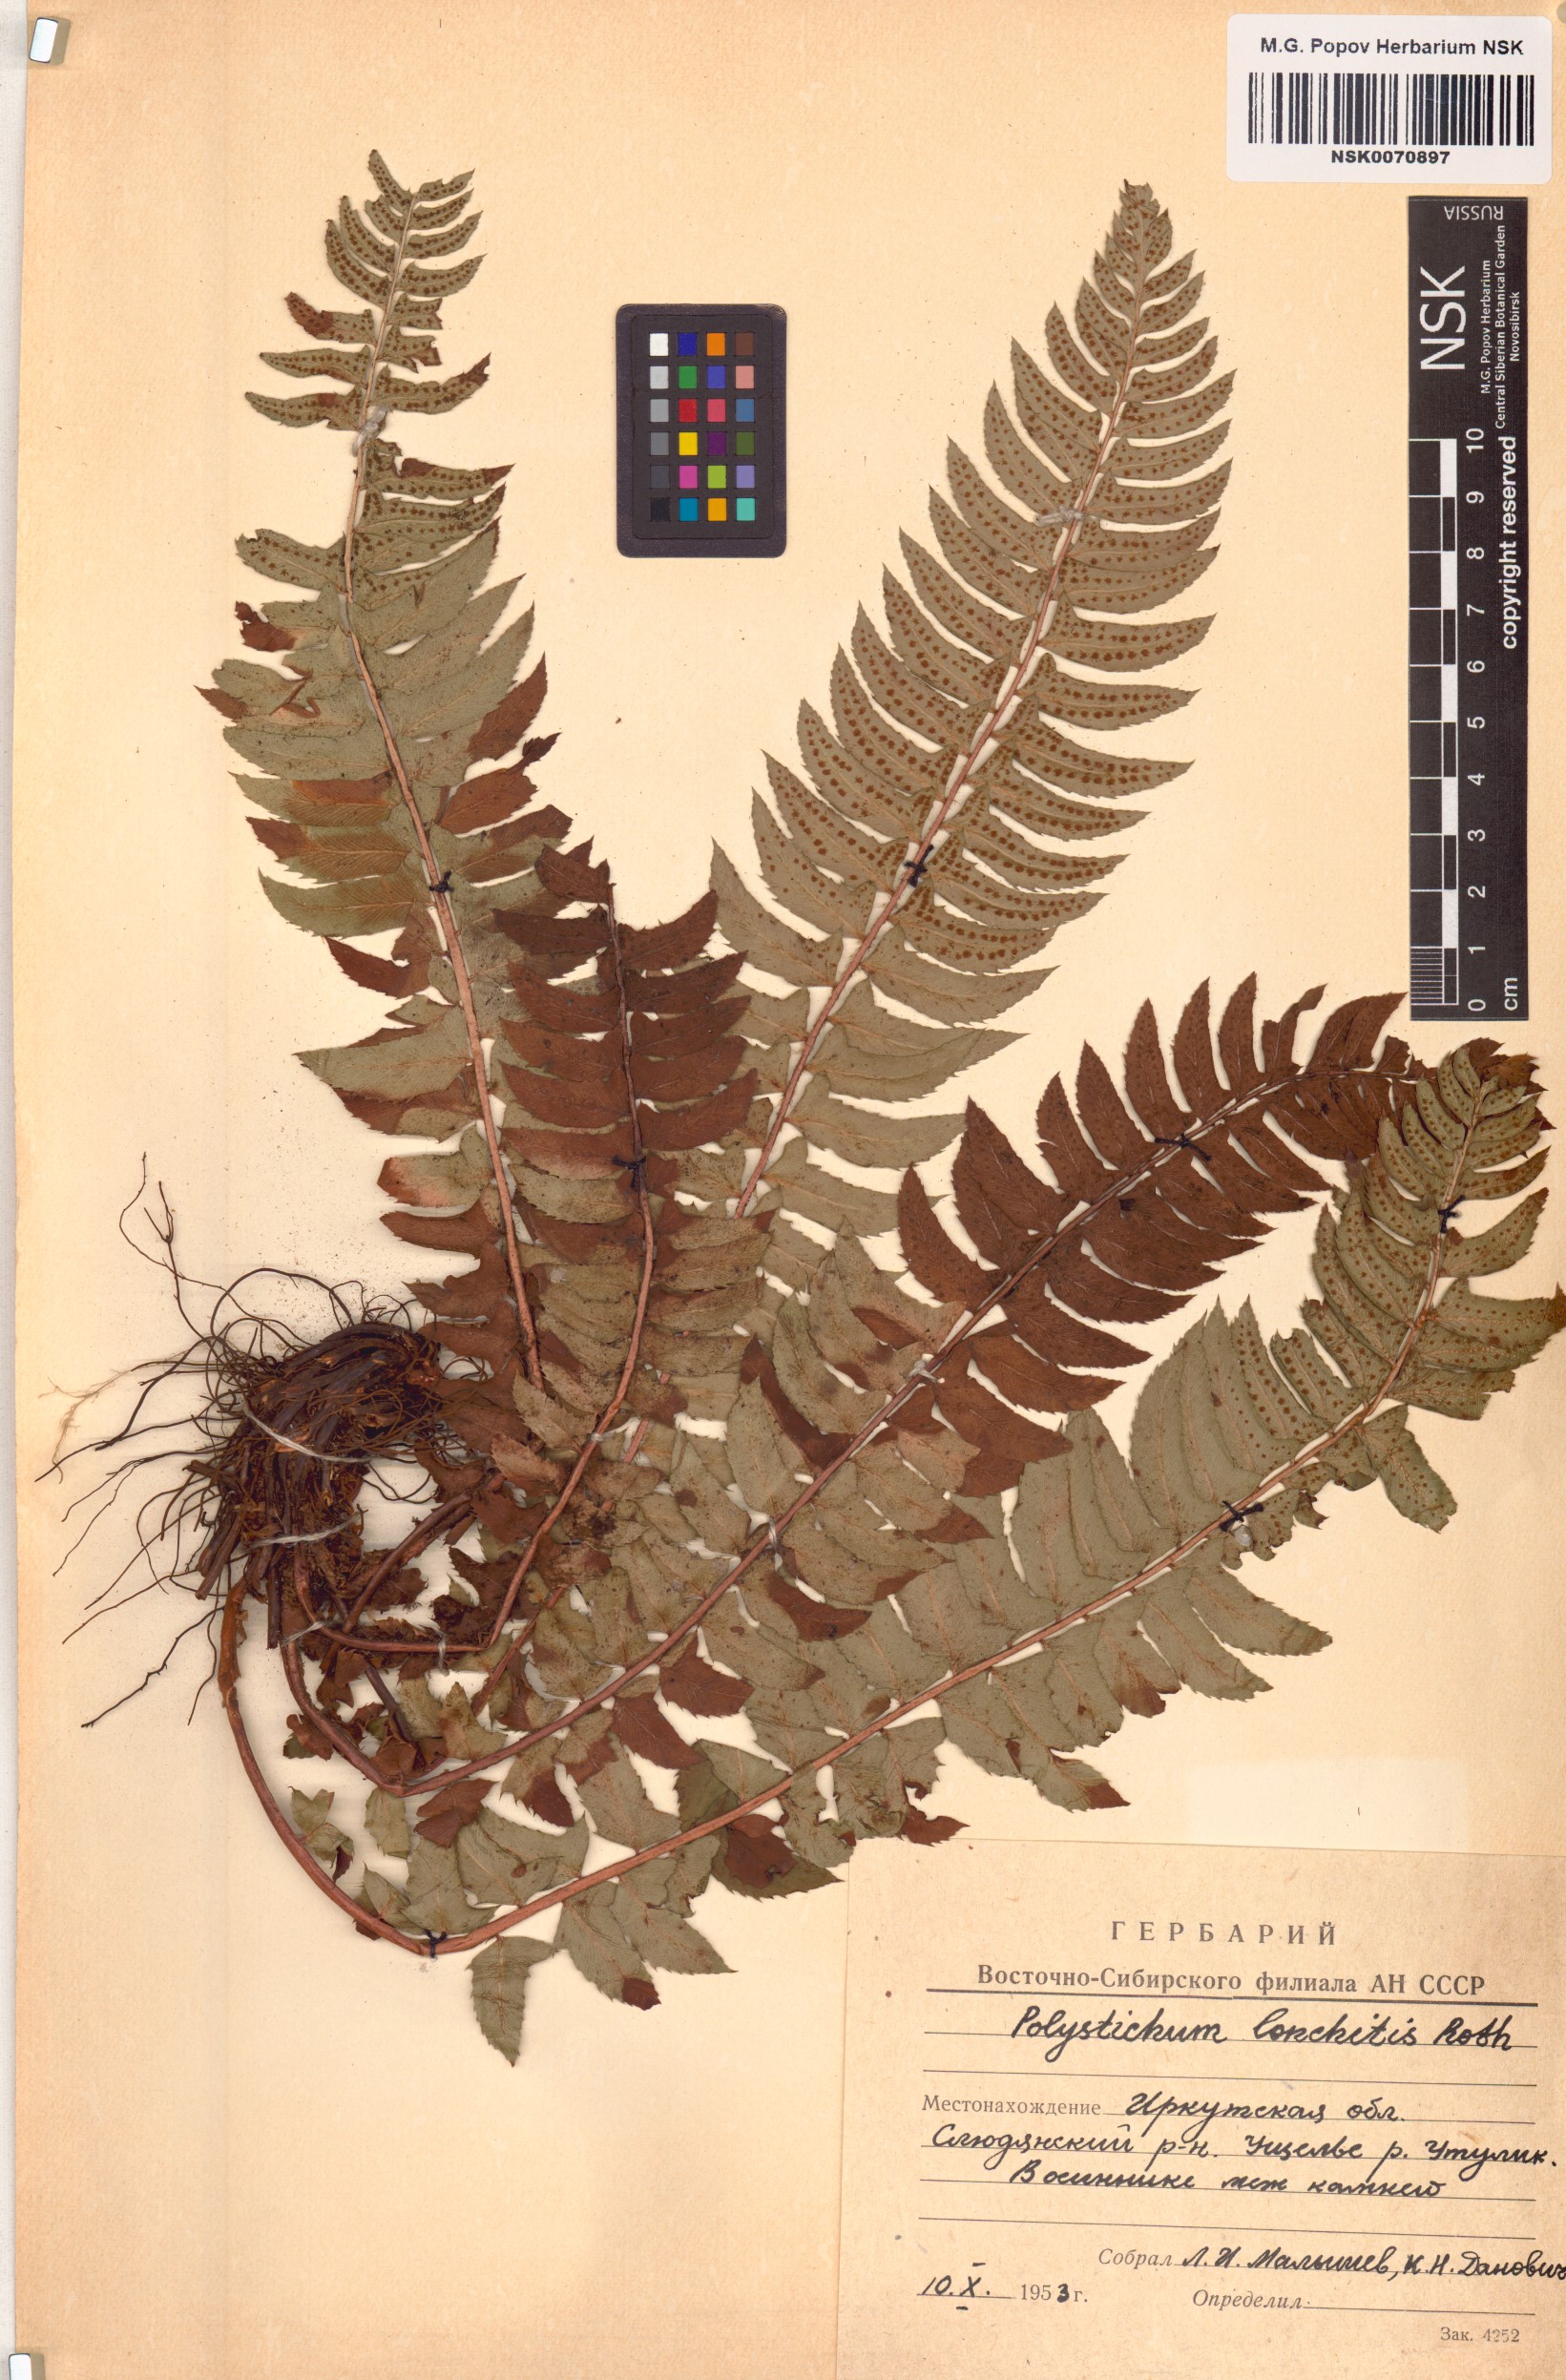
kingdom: Plantae
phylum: Tracheophyta
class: Polypodiopsida
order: Polypodiales
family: Dryopteridaceae
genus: Polystichum
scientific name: Polystichum lonchitis
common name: Holly fern
